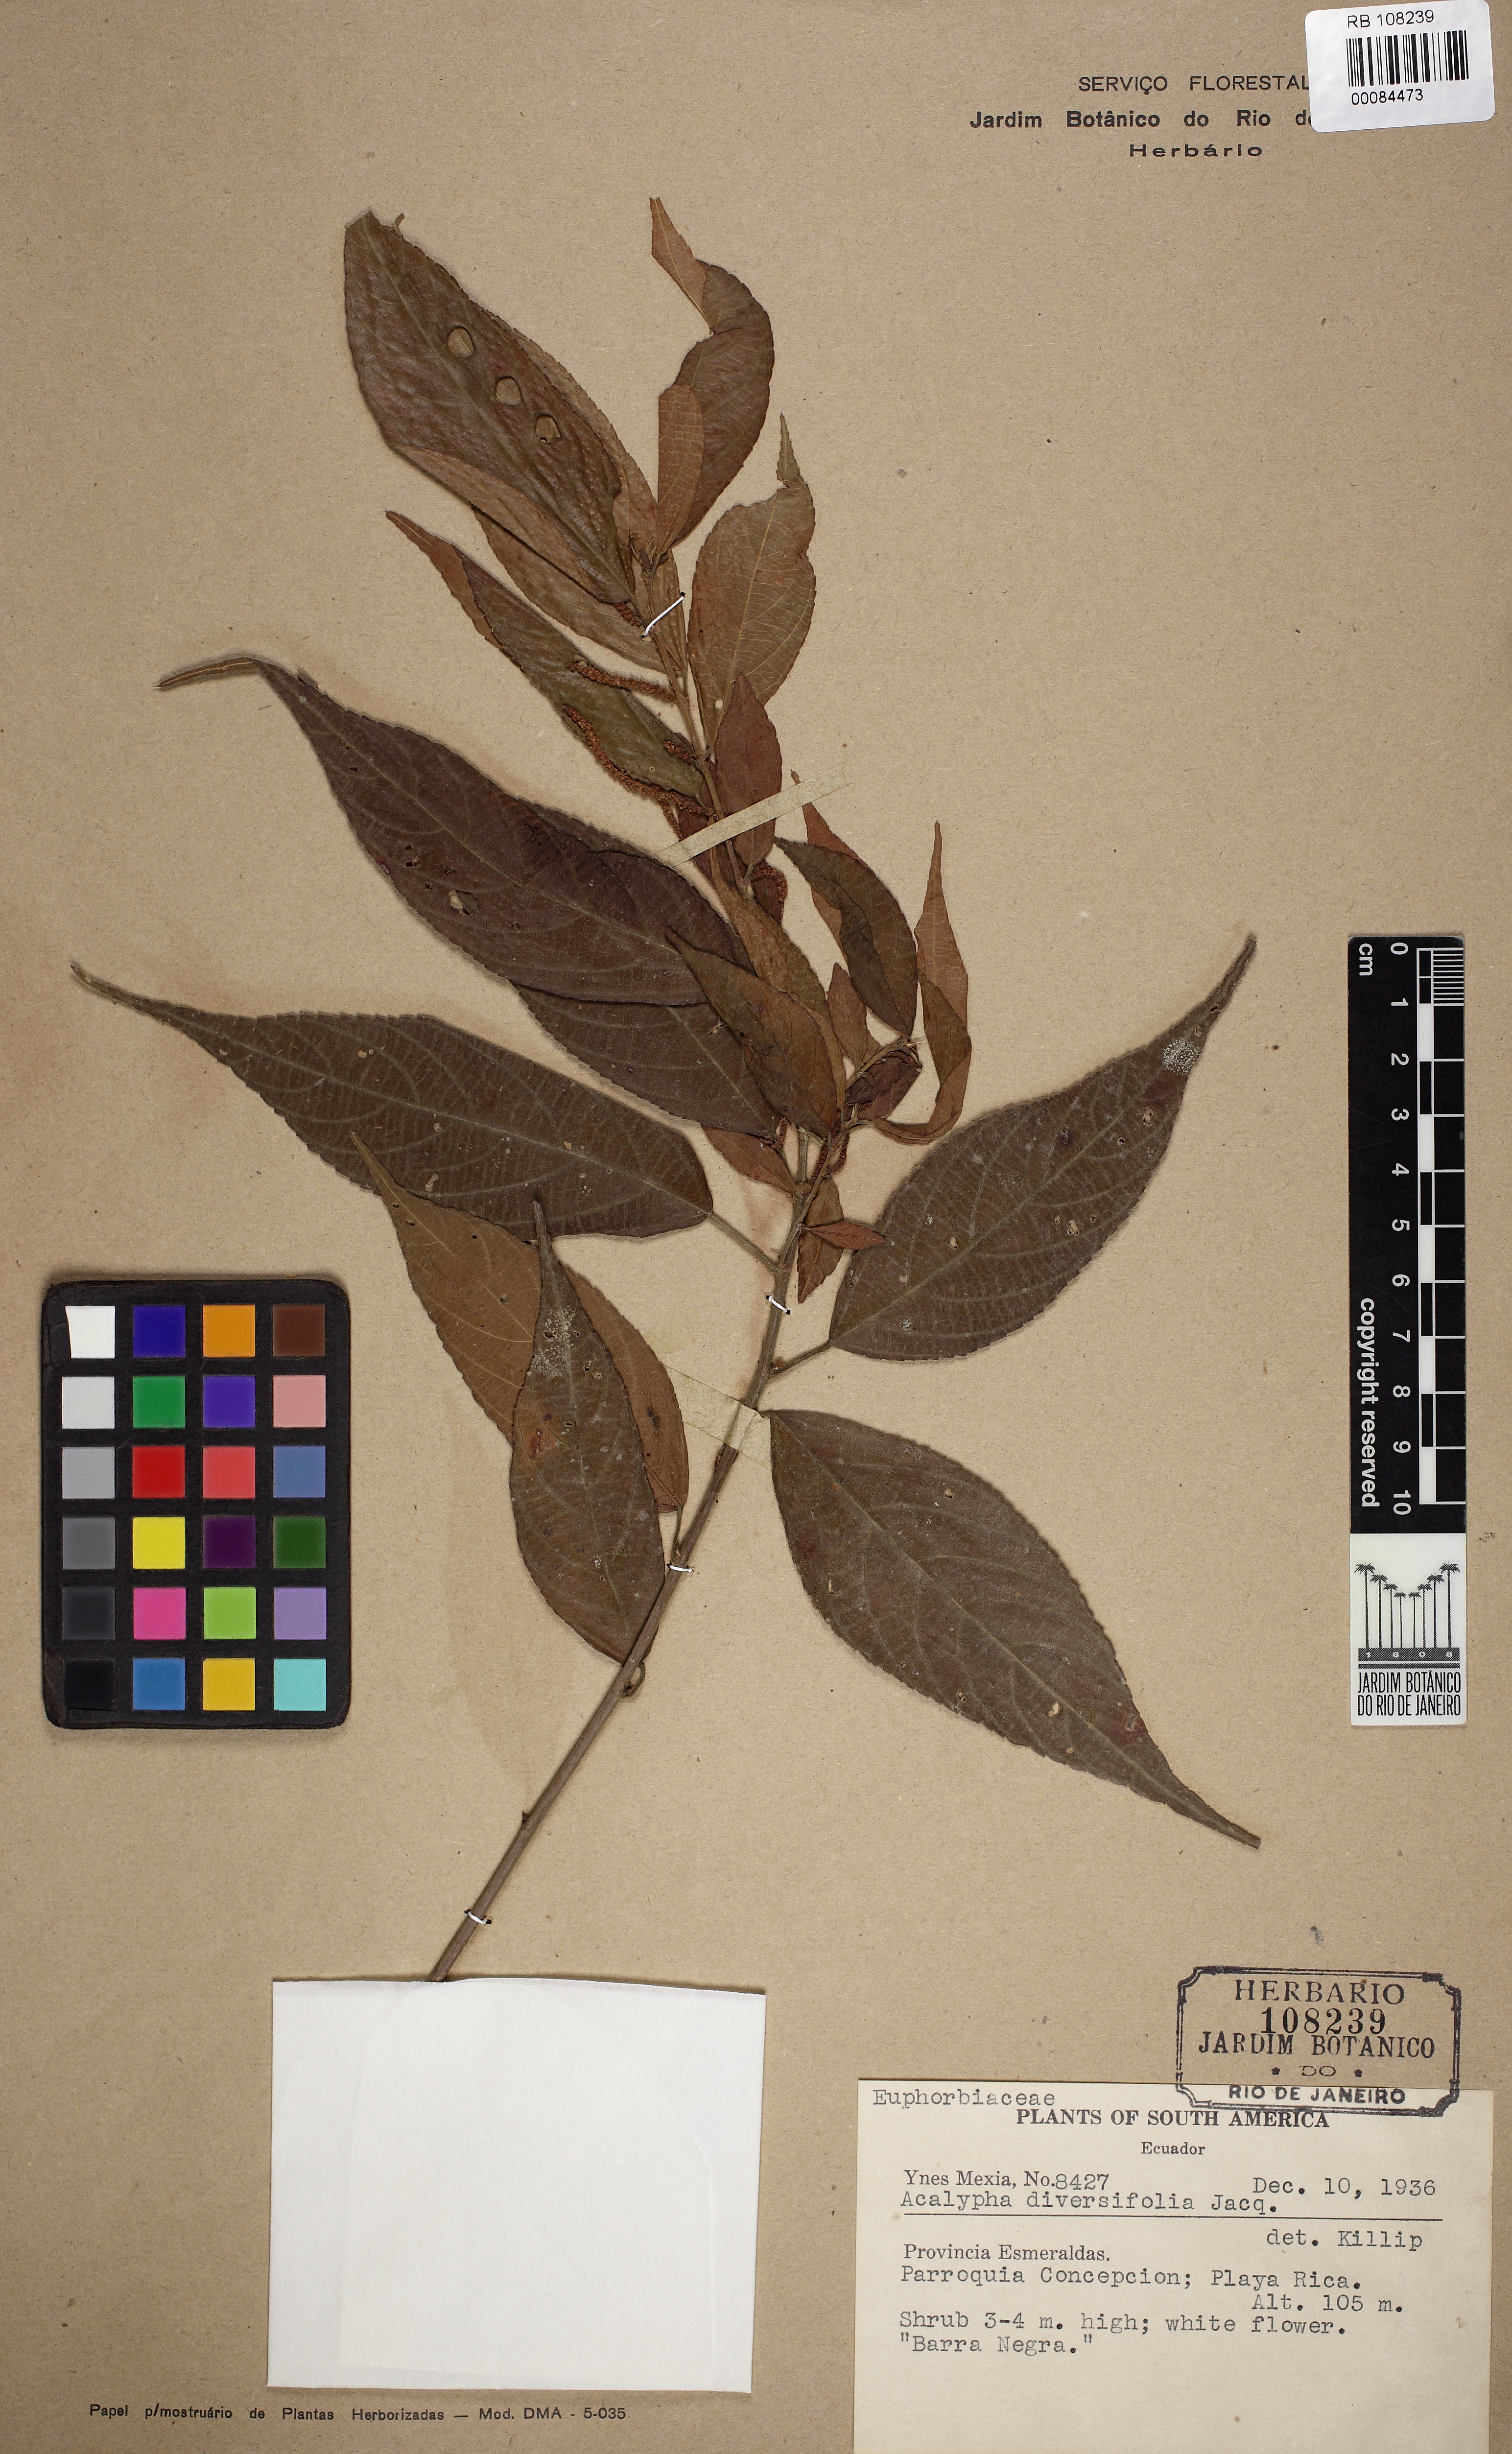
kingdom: Plantae
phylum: Tracheophyta
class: Magnoliopsida
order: Malpighiales
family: Euphorbiaceae
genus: Acalypha
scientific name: Acalypha diversifolia
